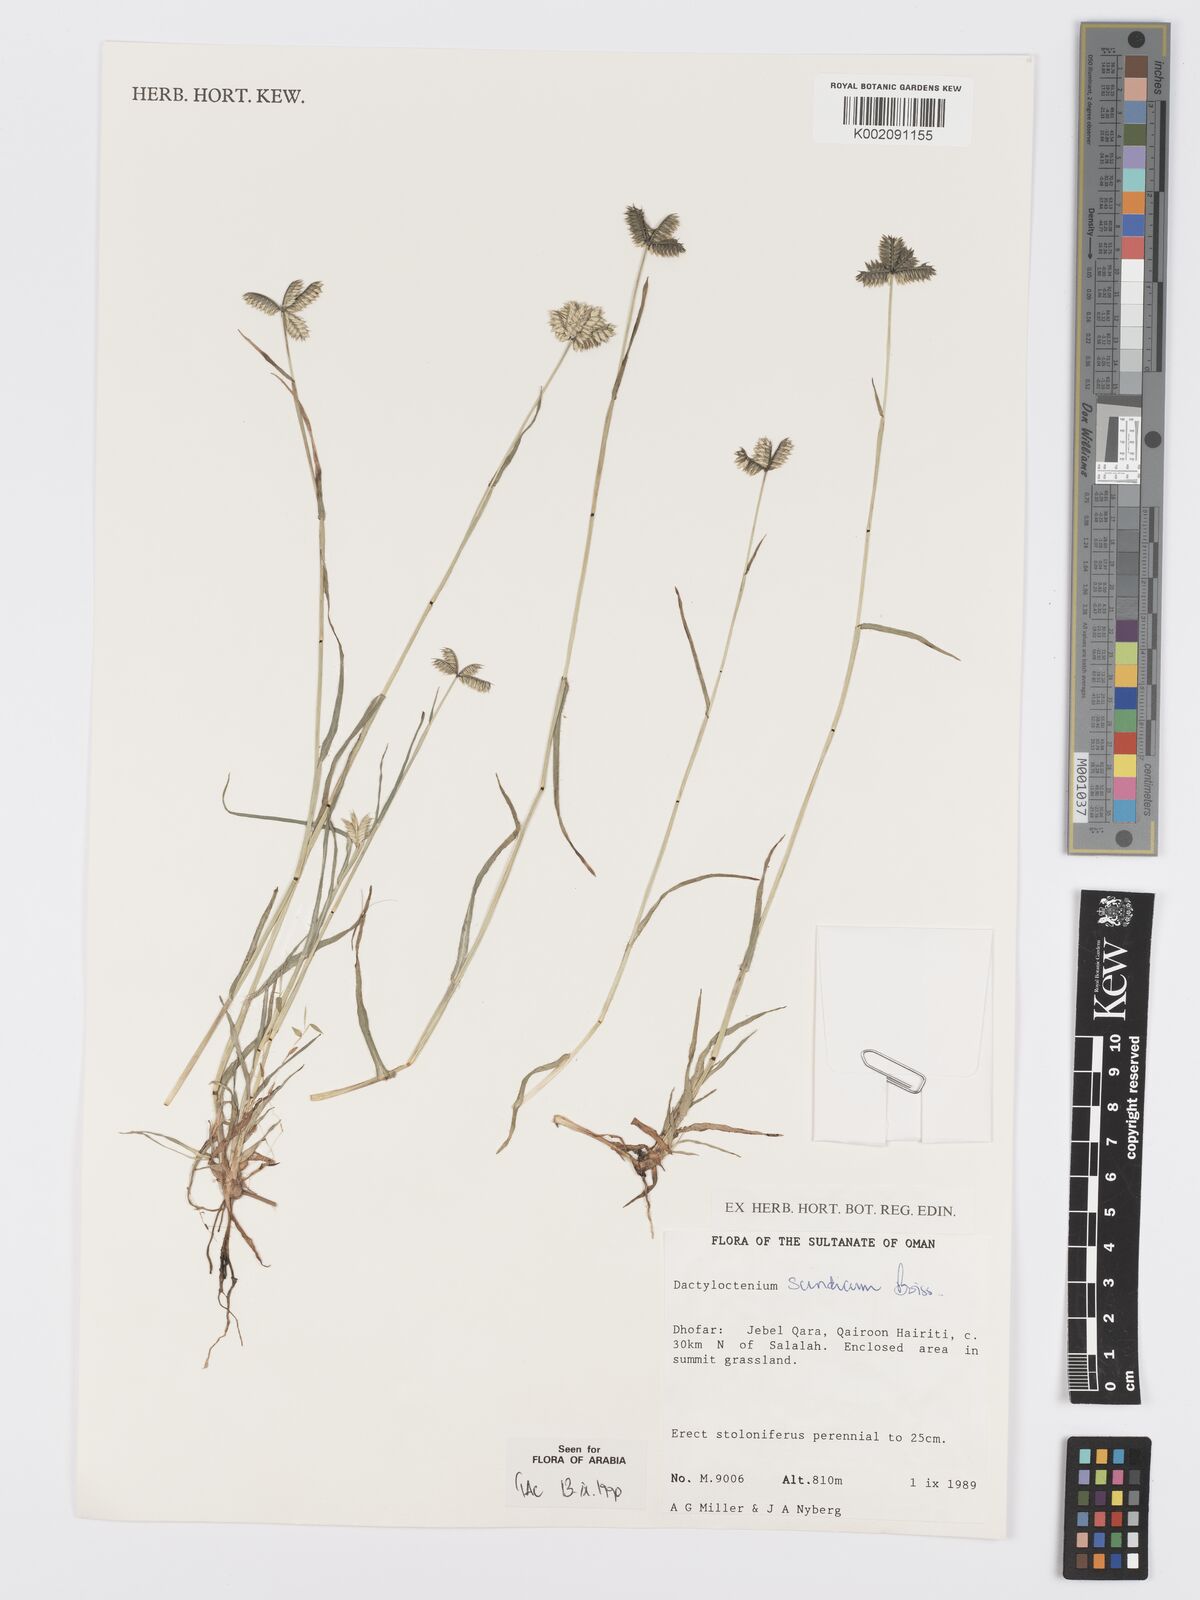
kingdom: Plantae
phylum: Tracheophyta
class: Liliopsida
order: Poales
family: Poaceae
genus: Dactyloctenium
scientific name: Dactyloctenium scindicum
